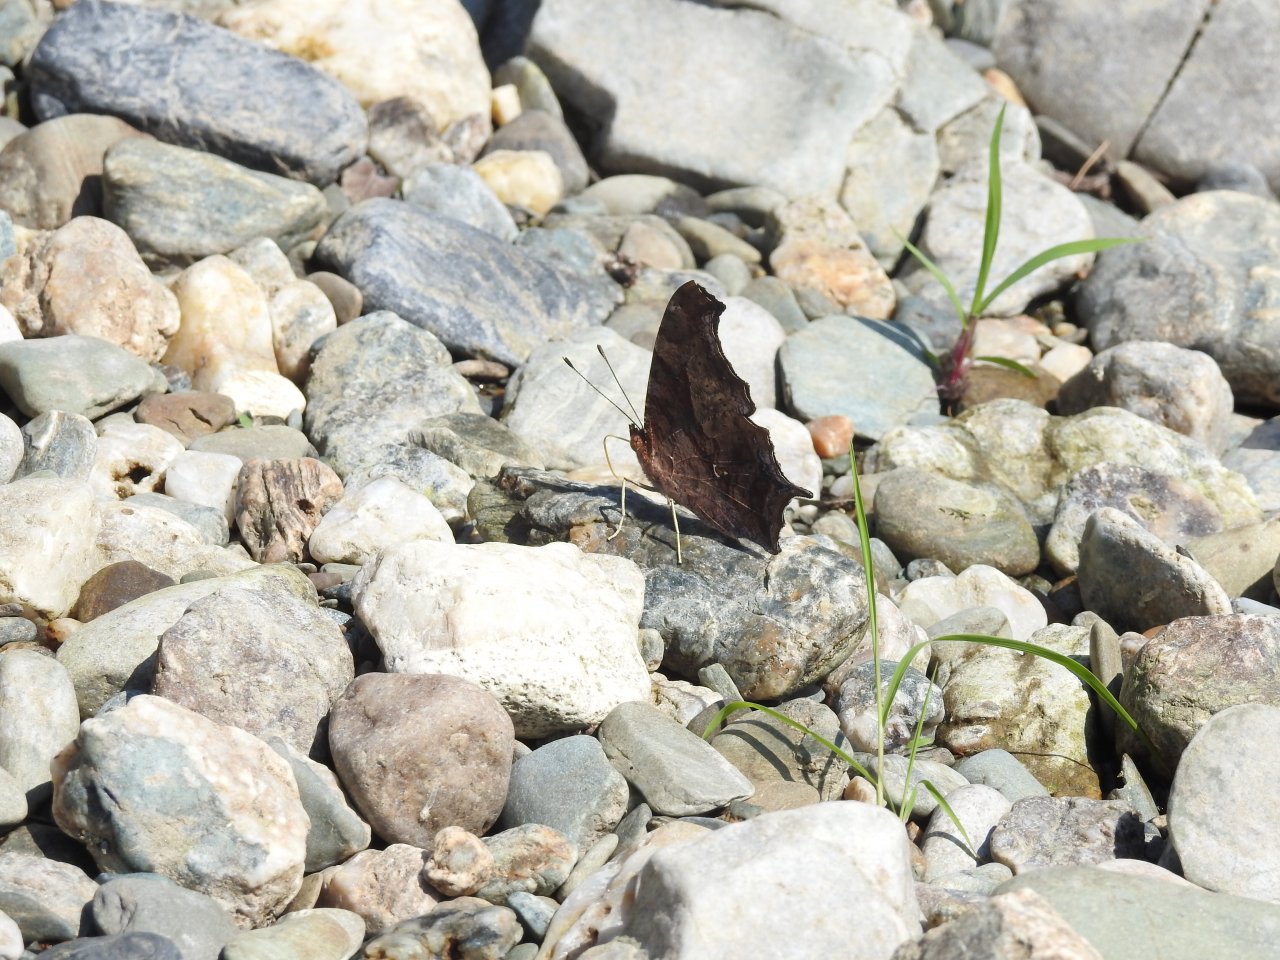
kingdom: Animalia
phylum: Arthropoda
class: Insecta
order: Lepidoptera
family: Nymphalidae
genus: Polygonia
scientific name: Polygonia interrogationis
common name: Question Mark
